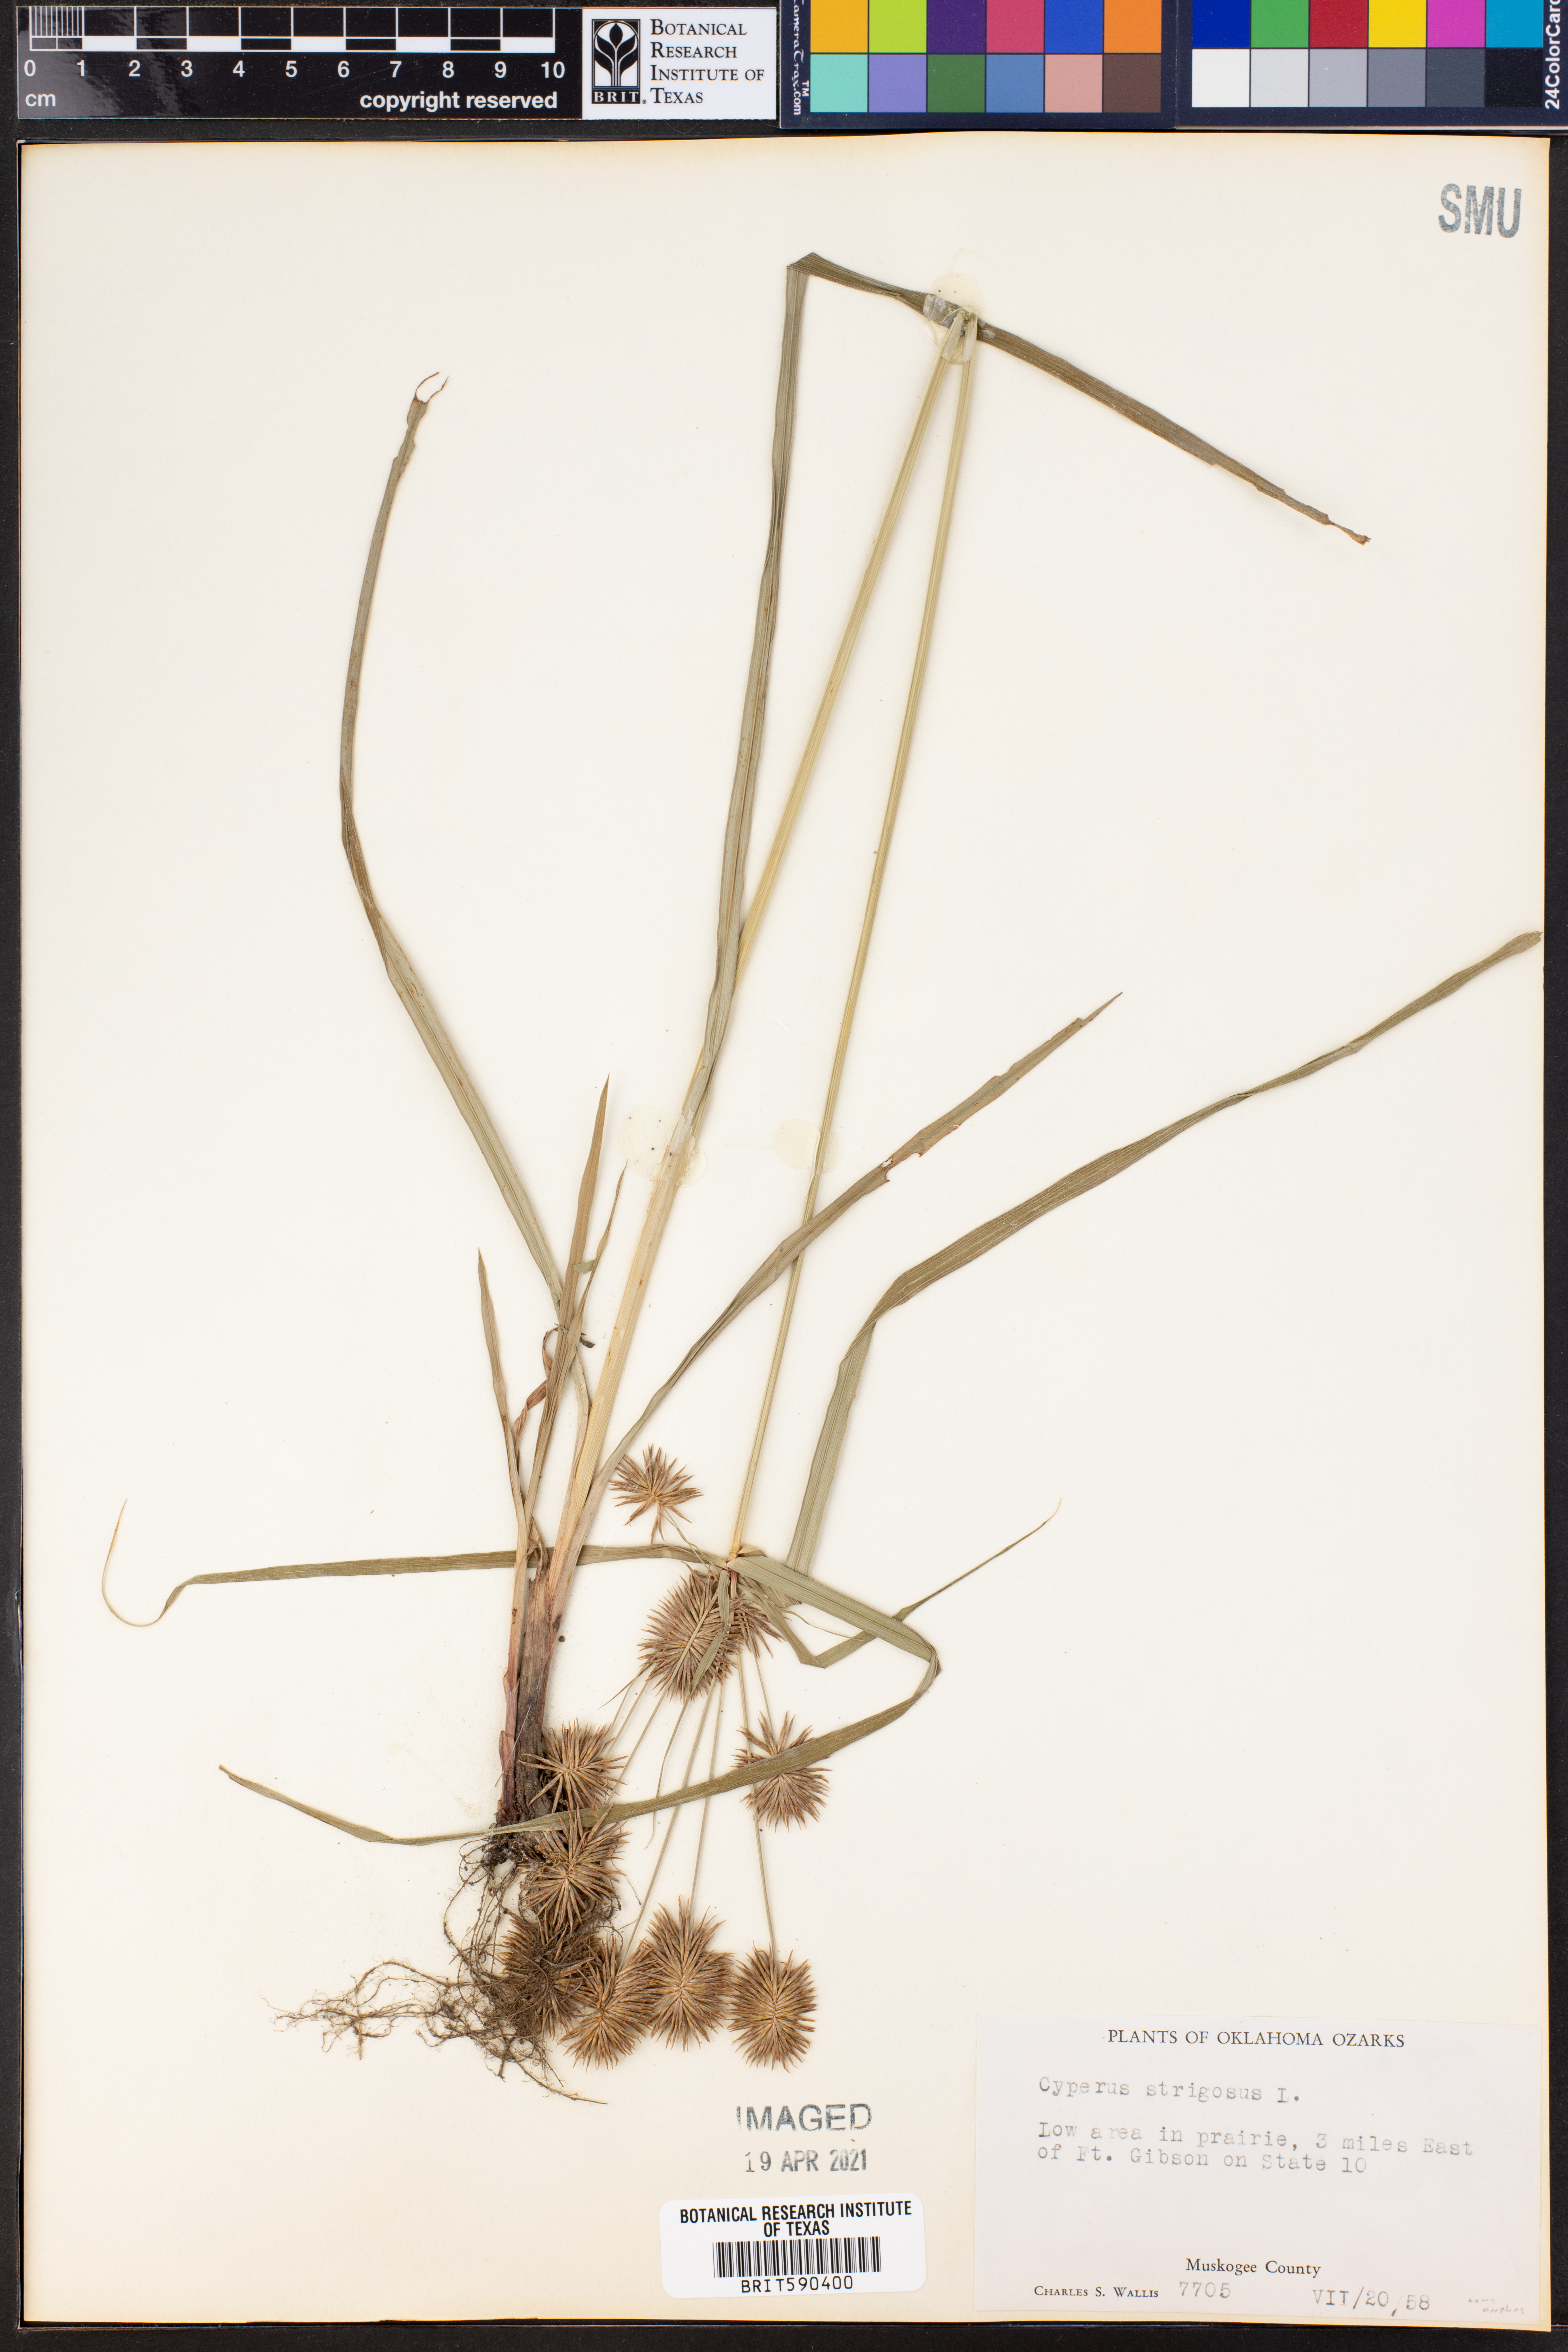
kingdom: Plantae
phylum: Tracheophyta
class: Liliopsida
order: Poales
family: Cyperaceae
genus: Cyperus
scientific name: Cyperus strigosus
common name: False nutsedge
